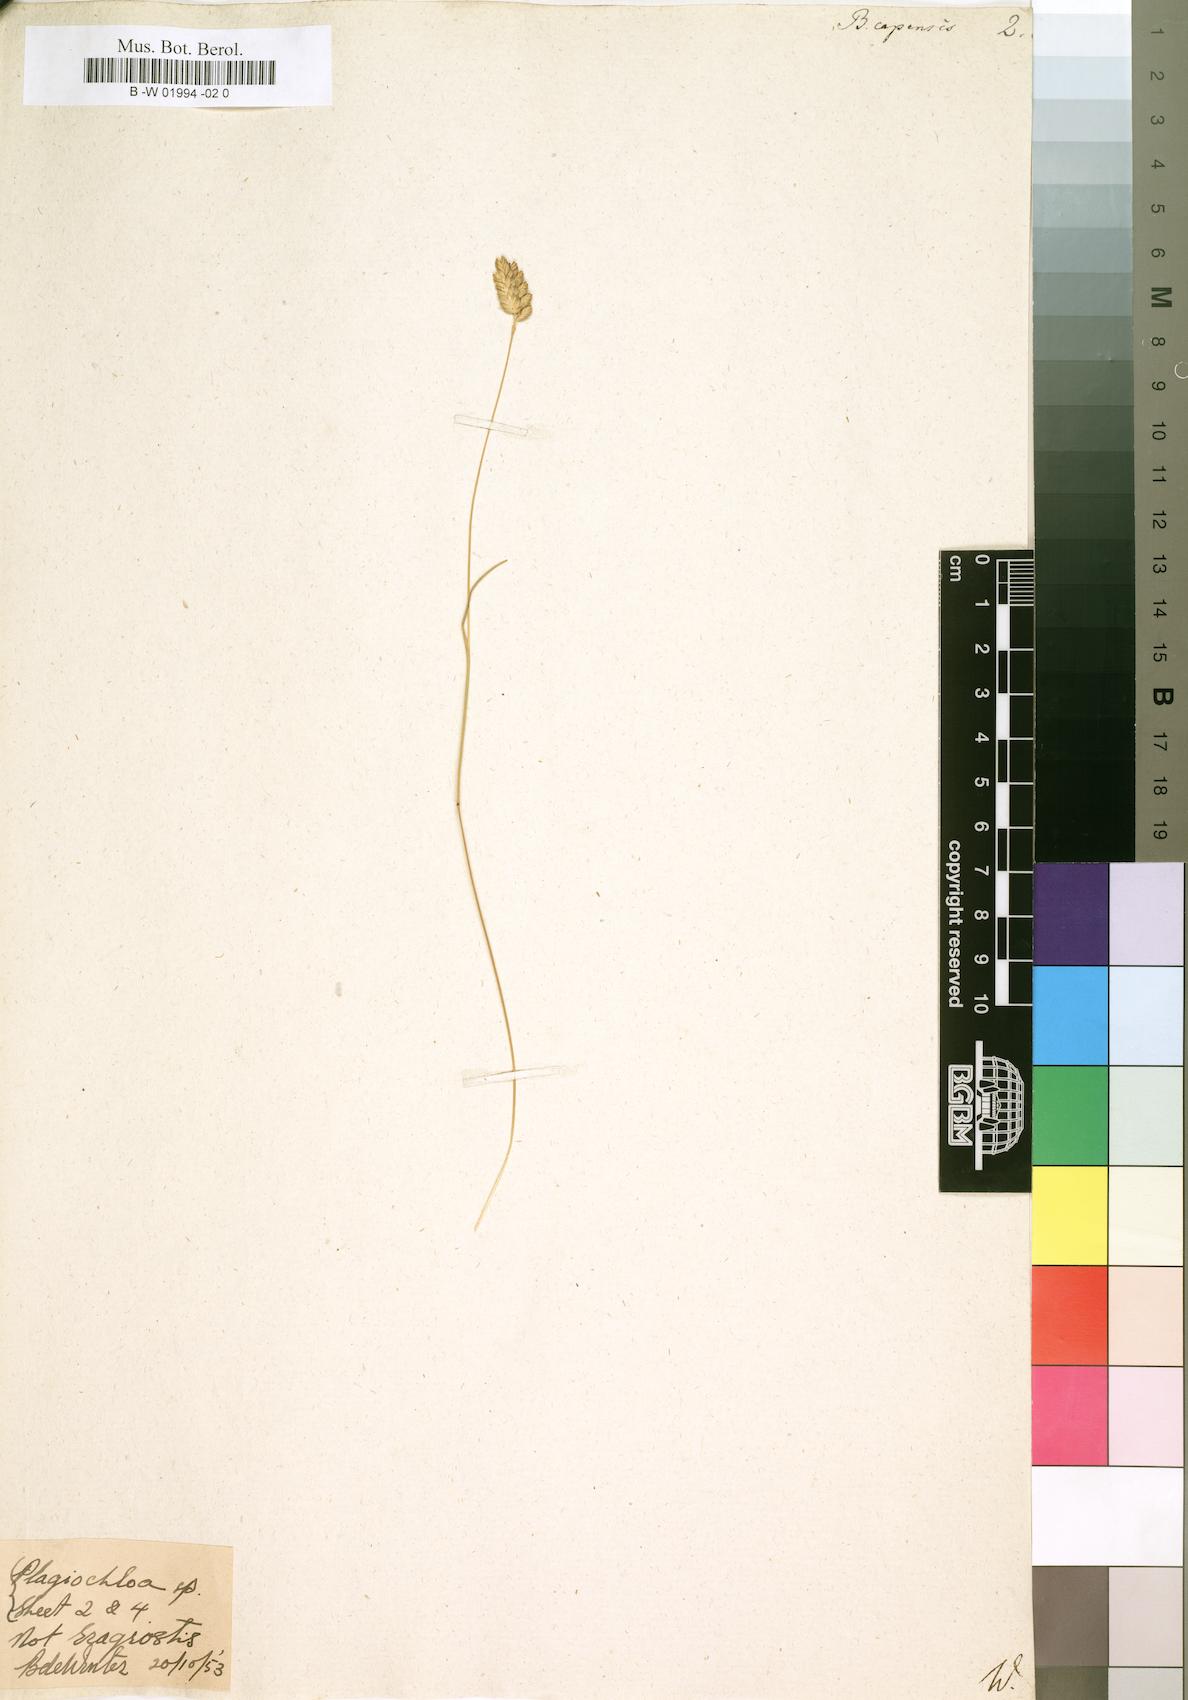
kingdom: Plantae
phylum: Tracheophyta
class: Liliopsida
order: Poales
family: Poaceae
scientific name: Poaceae
